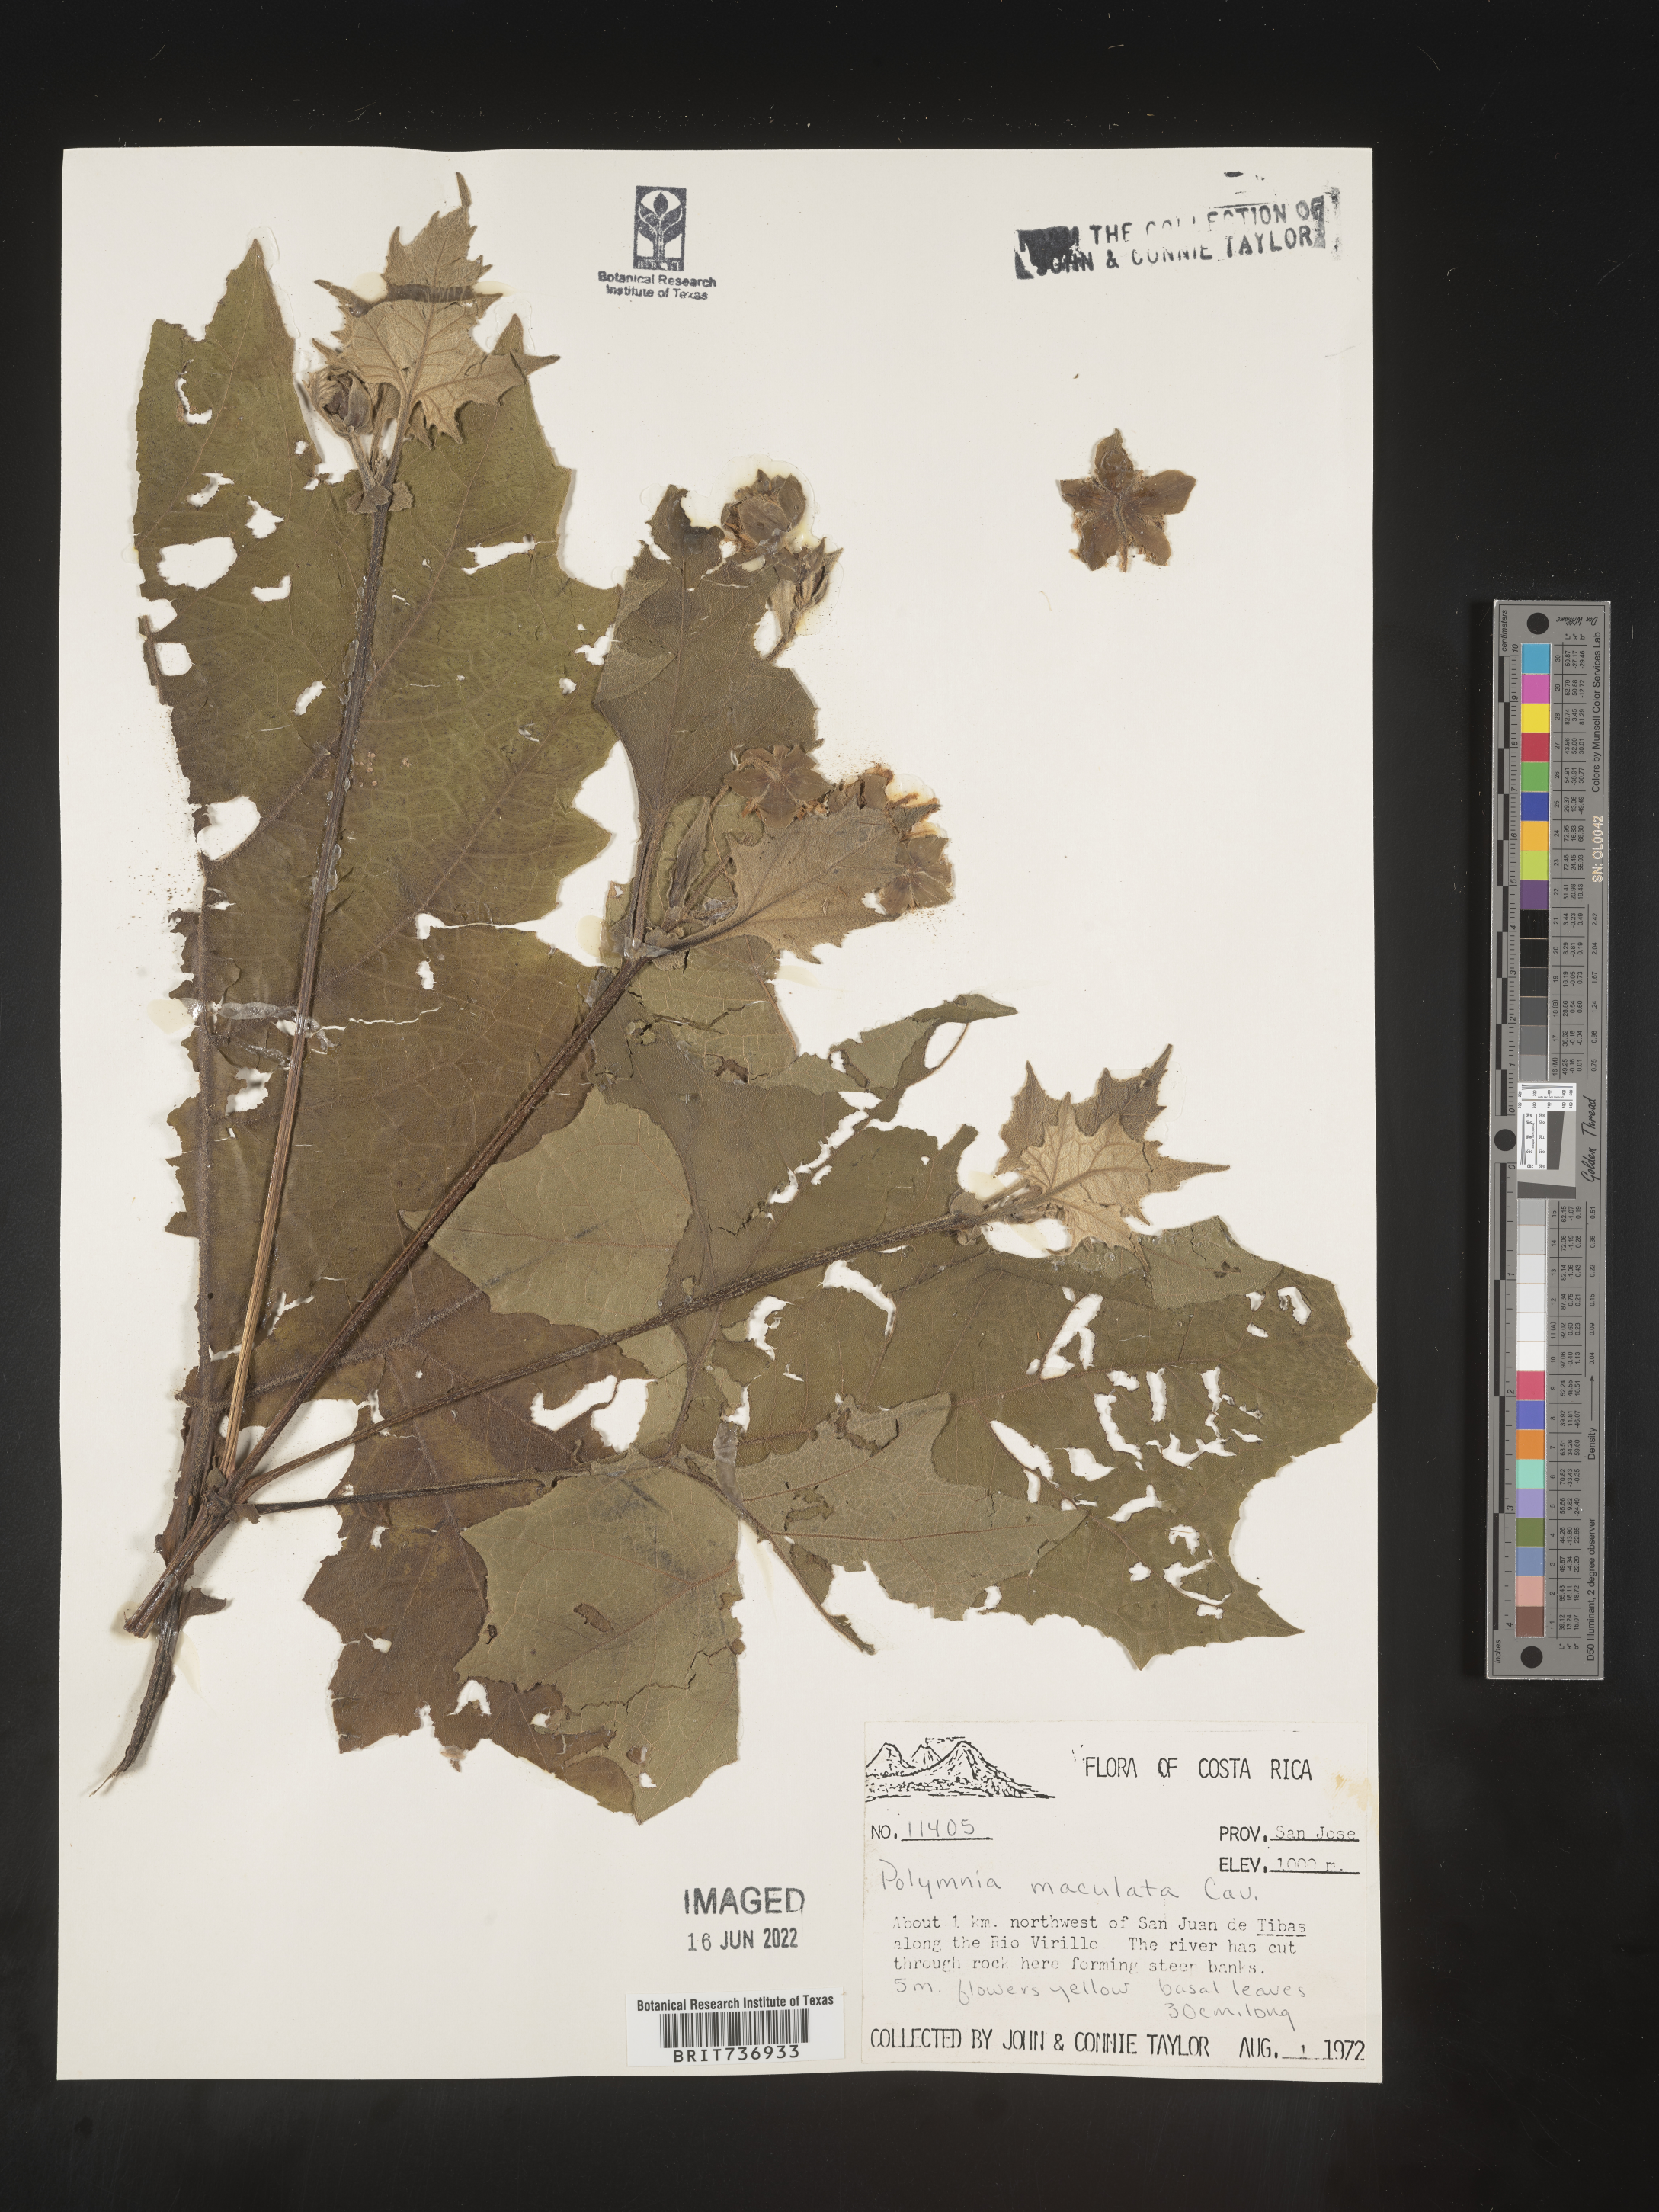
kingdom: Plantae
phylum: Tracheophyta
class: Magnoliopsida
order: Asterales
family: Asteraceae
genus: Polymnia
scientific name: Polymnia
